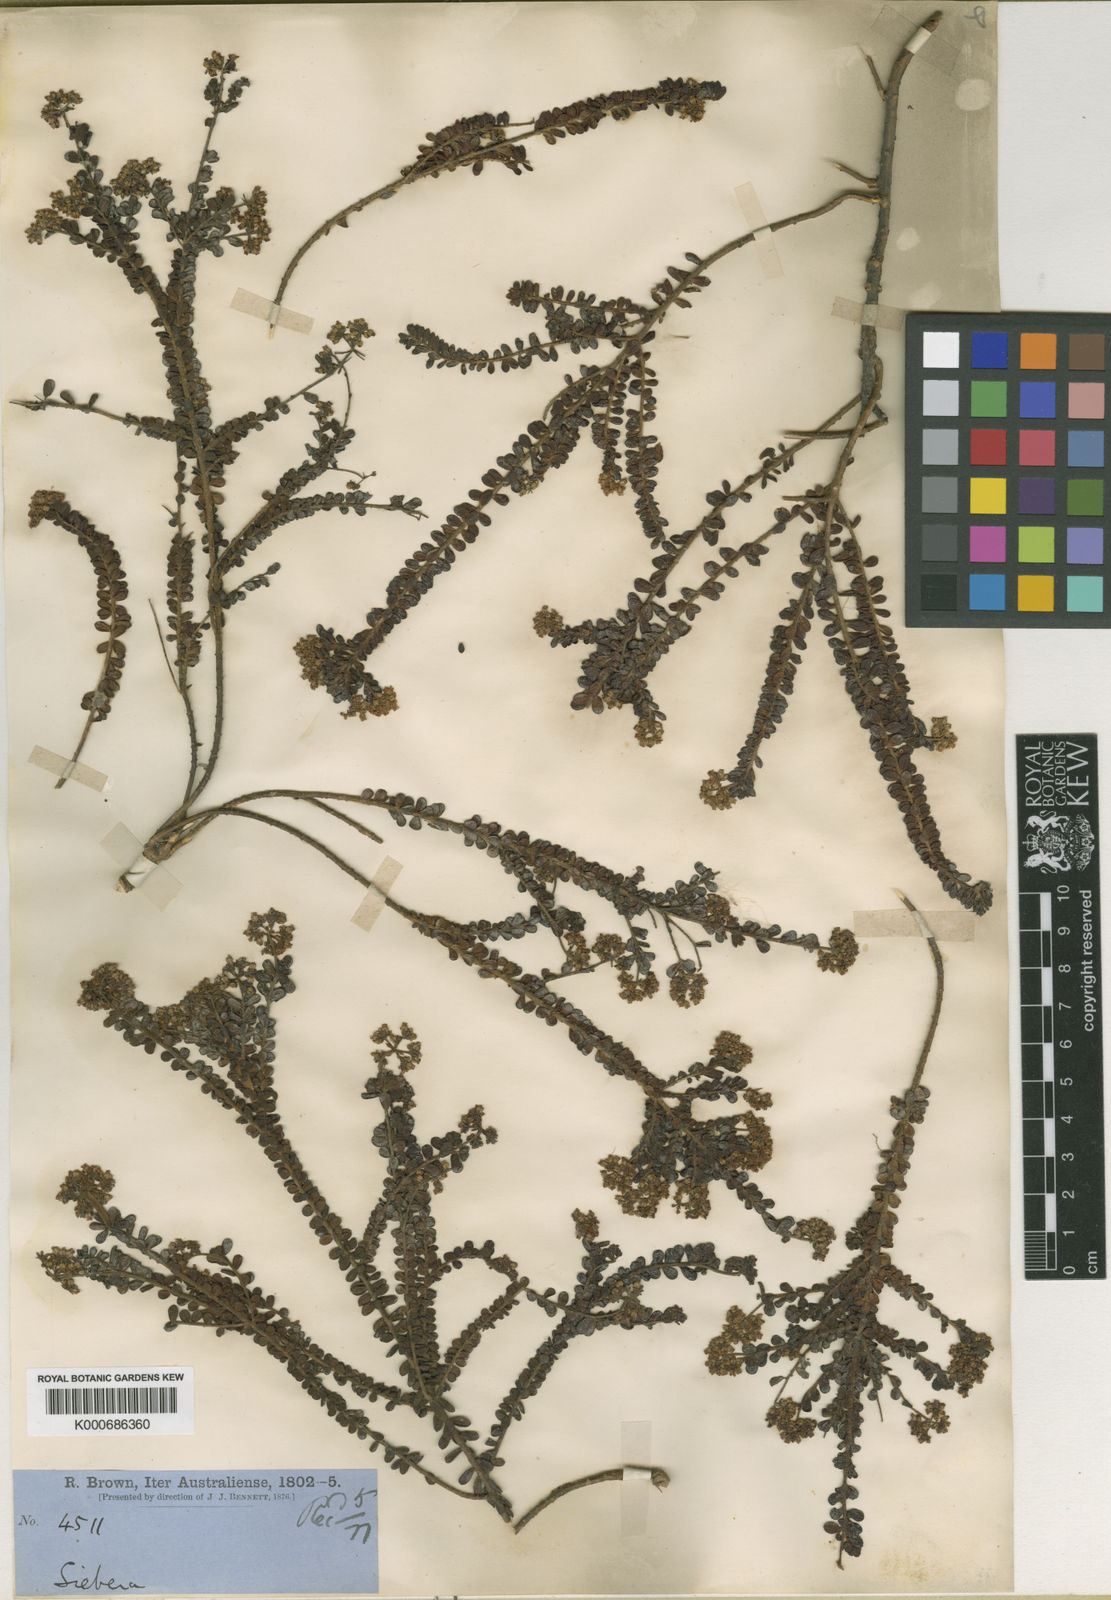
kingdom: Plantae
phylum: Tracheophyta
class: Magnoliopsida
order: Apiales
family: Apiaceae
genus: Platysace
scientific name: Platysace lanceolata
